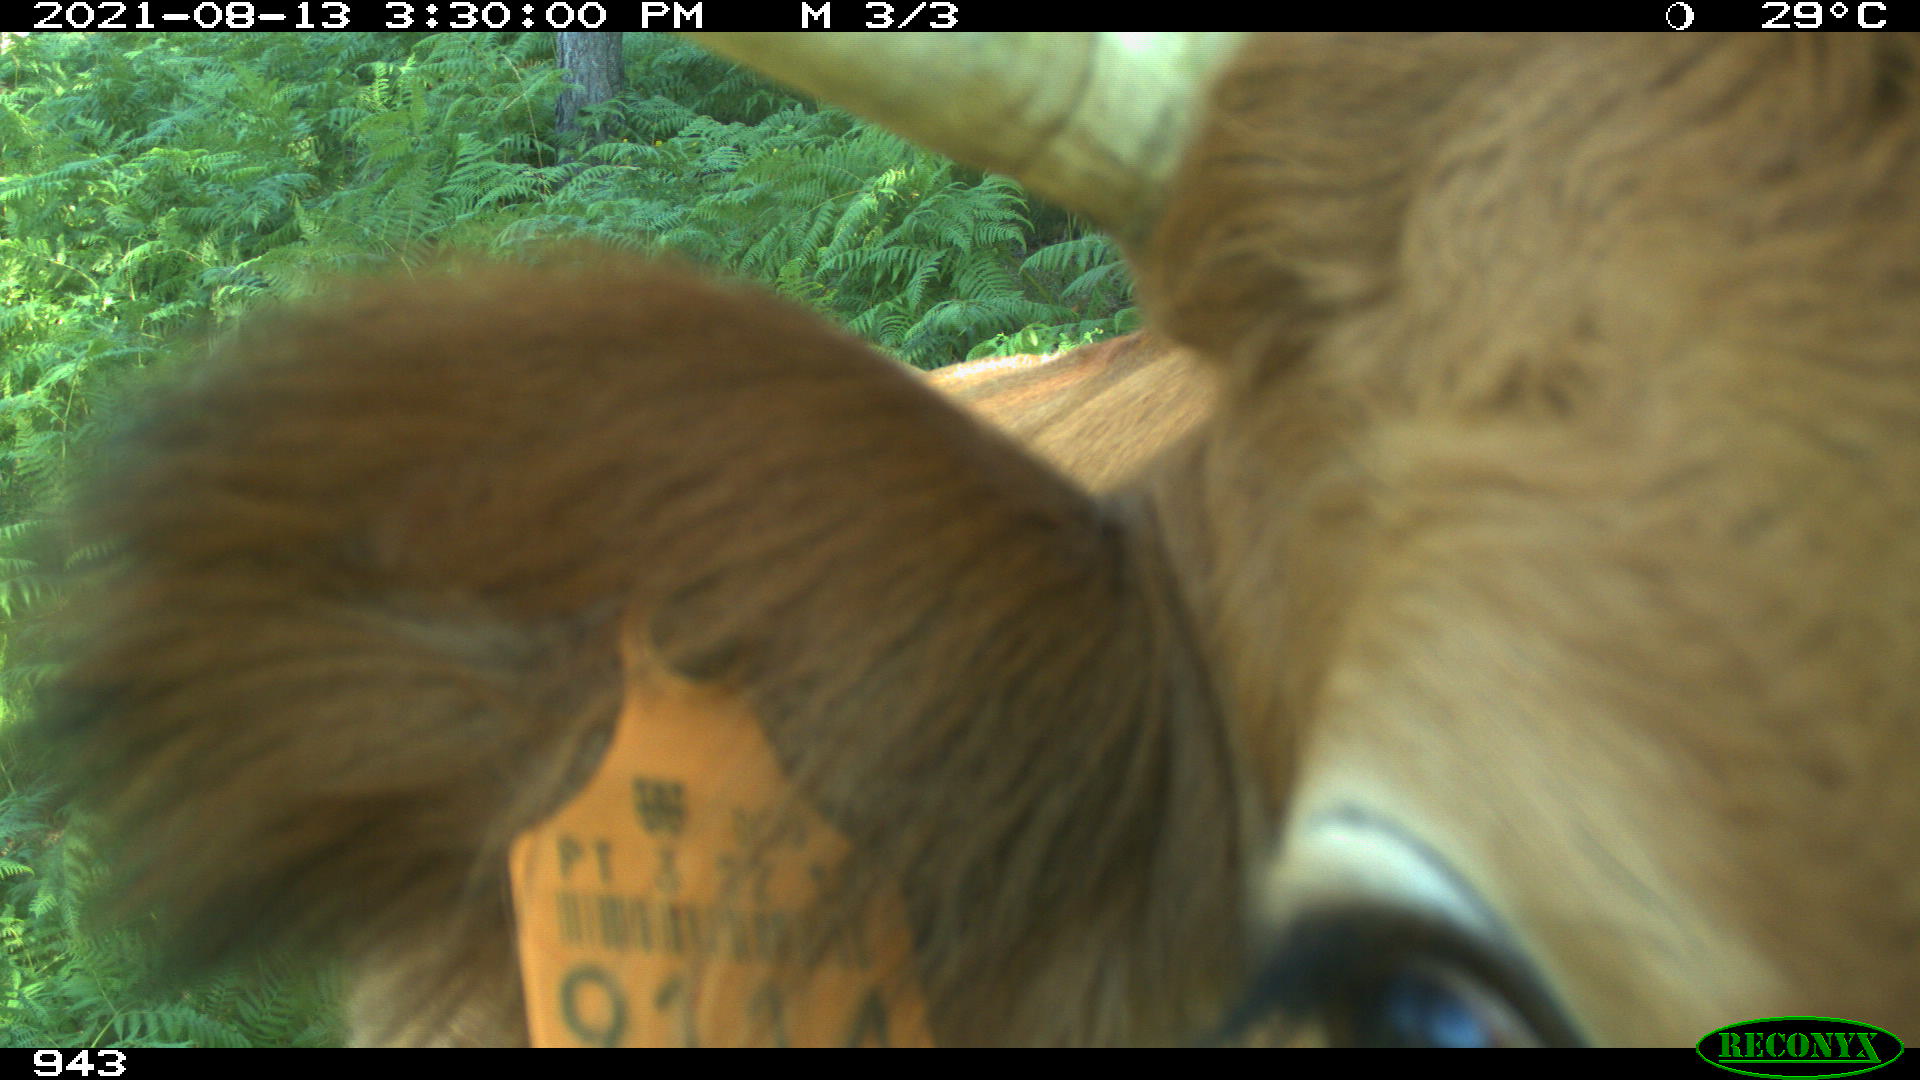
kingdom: Animalia
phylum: Chordata
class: Mammalia
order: Artiodactyla
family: Bovidae
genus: Bos
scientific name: Bos taurus
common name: Domesticated cattle
